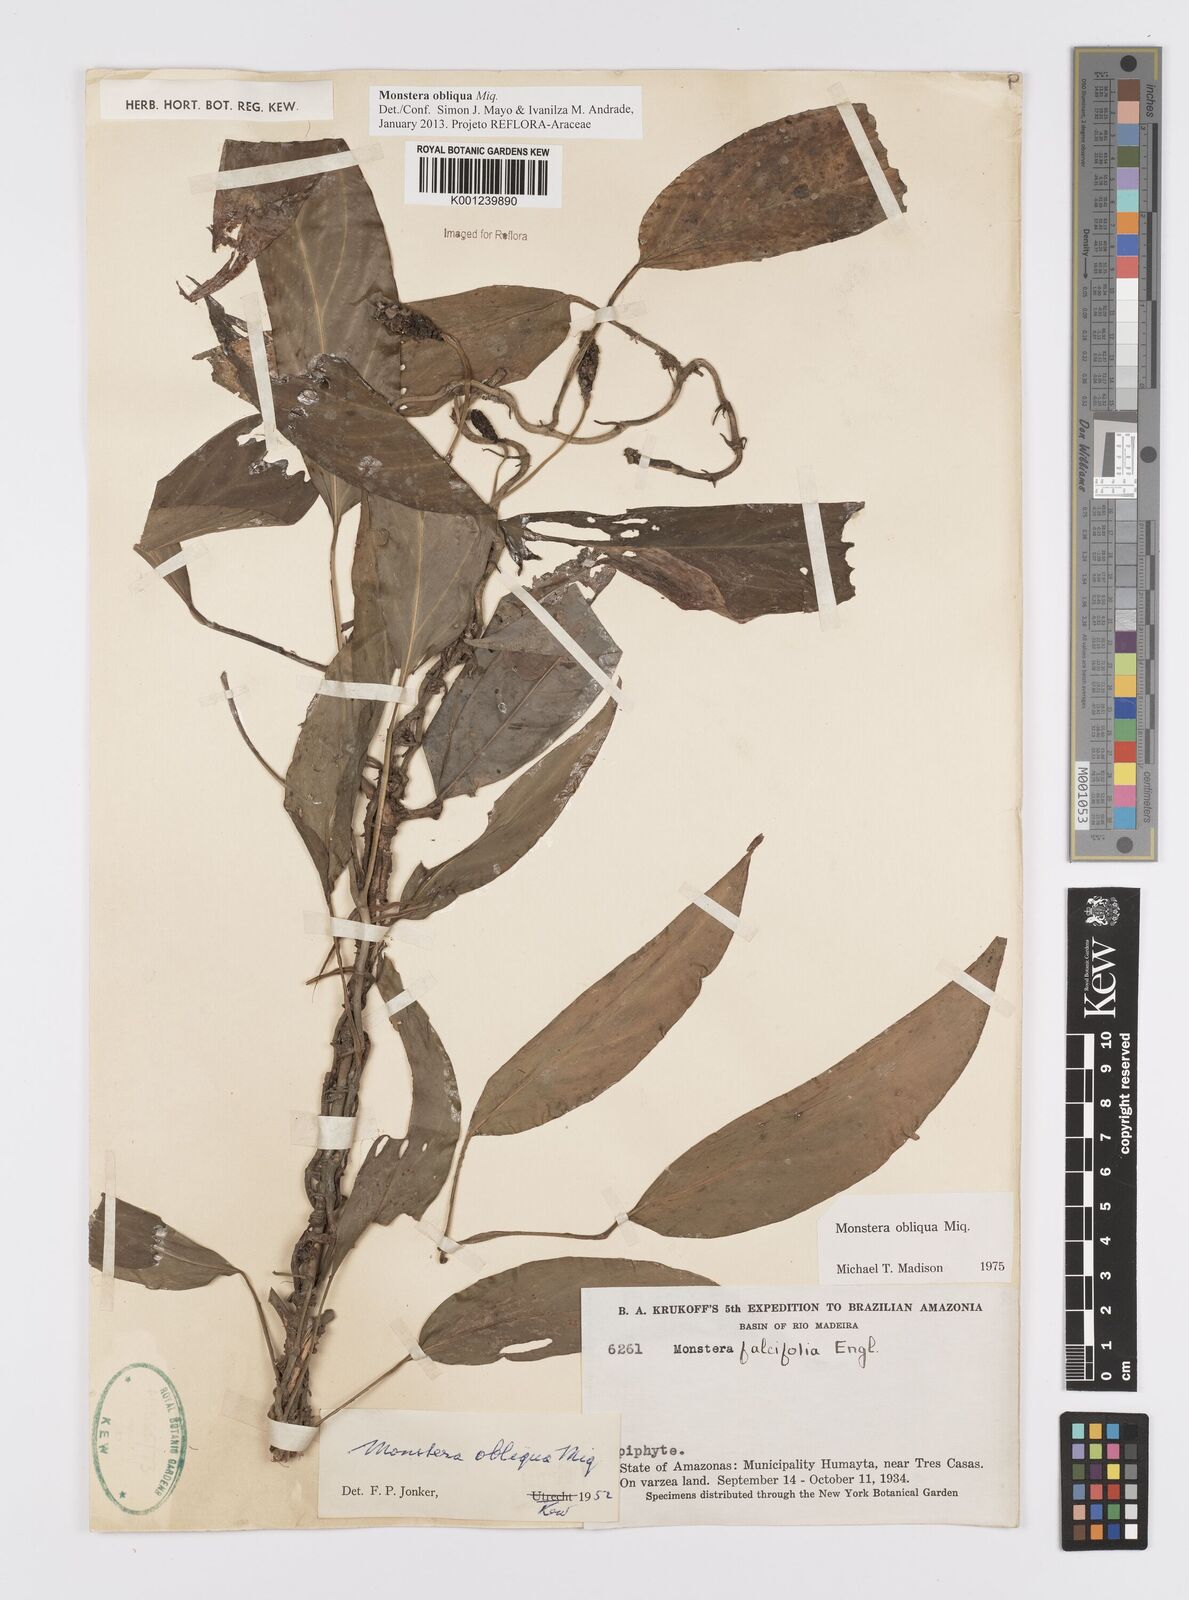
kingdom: Plantae
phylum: Tracheophyta
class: Liliopsida
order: Alismatales
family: Araceae
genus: Monstera
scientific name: Monstera obliqua
